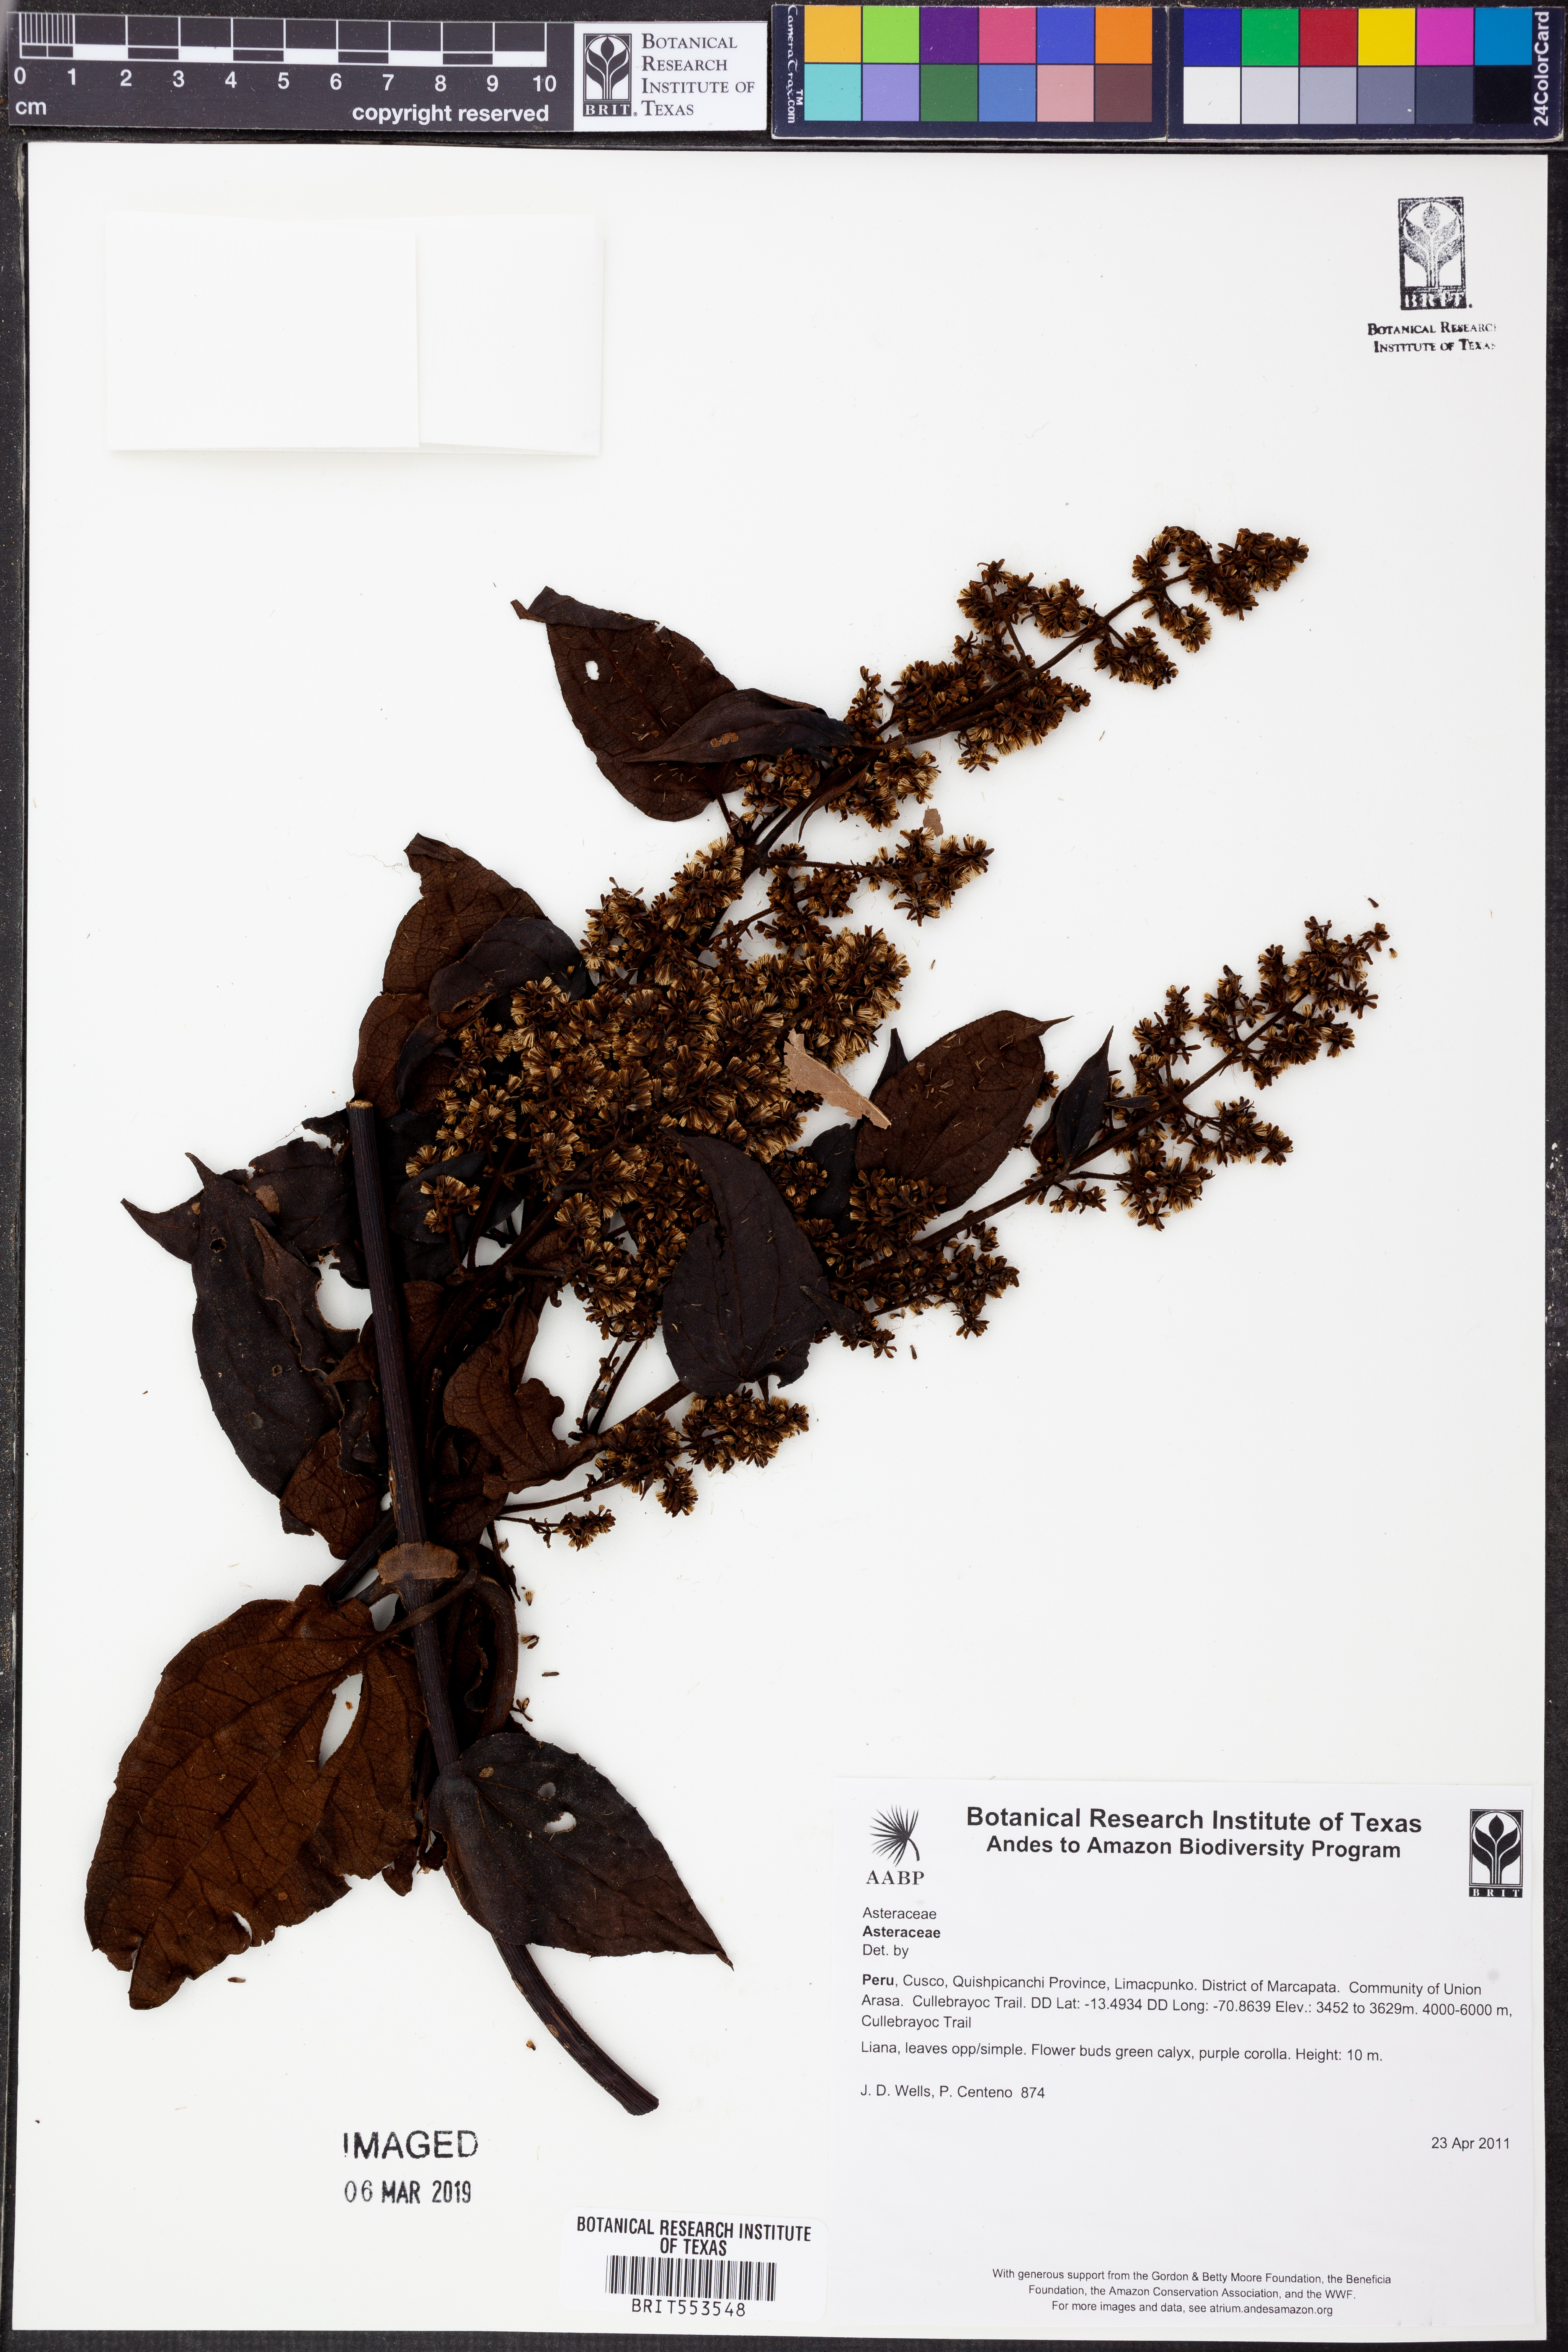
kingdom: Plantae
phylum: Tracheophyta
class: Magnoliopsida
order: Asterales
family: Asteraceae
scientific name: Asteraceae
